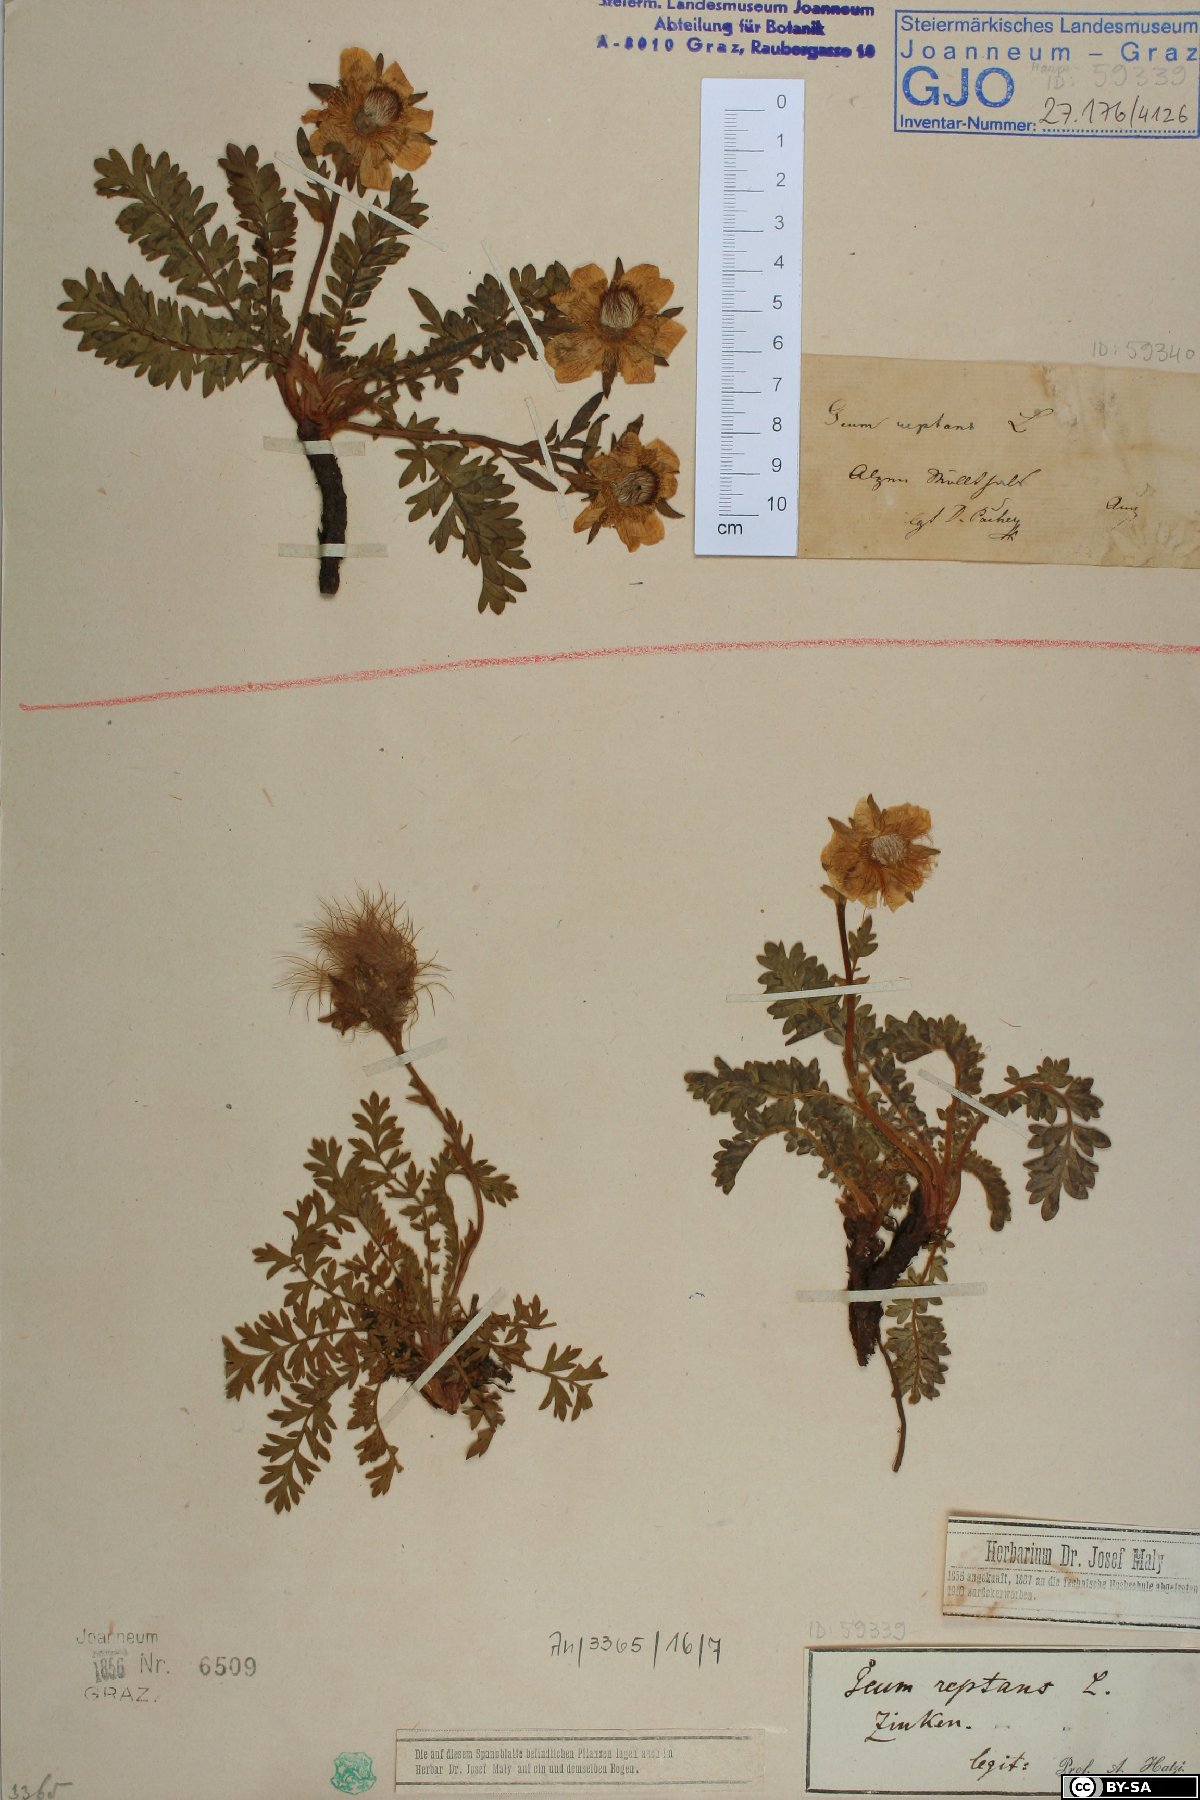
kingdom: Plantae
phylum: Tracheophyta
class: Magnoliopsida
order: Rosales
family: Rosaceae
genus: Geum
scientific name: Geum reptans
